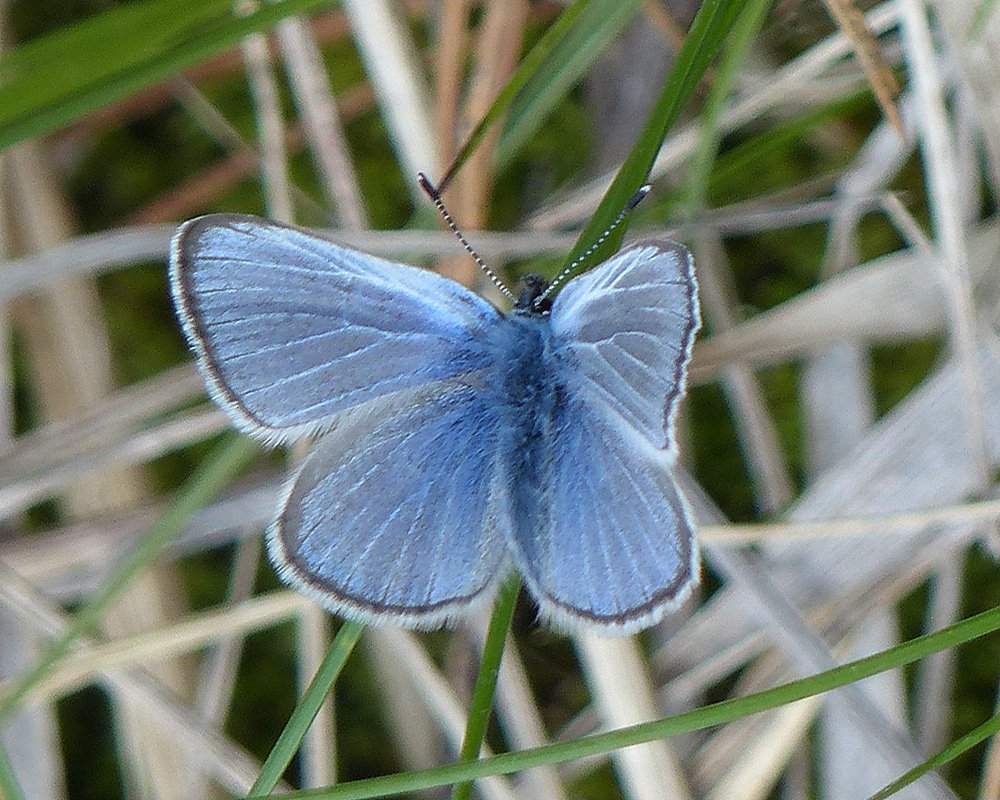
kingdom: Animalia
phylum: Arthropoda
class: Insecta
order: Lepidoptera
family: Lycaenidae
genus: Glaucopsyche
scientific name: Glaucopsyche lygdamus
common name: Silvery Blue
